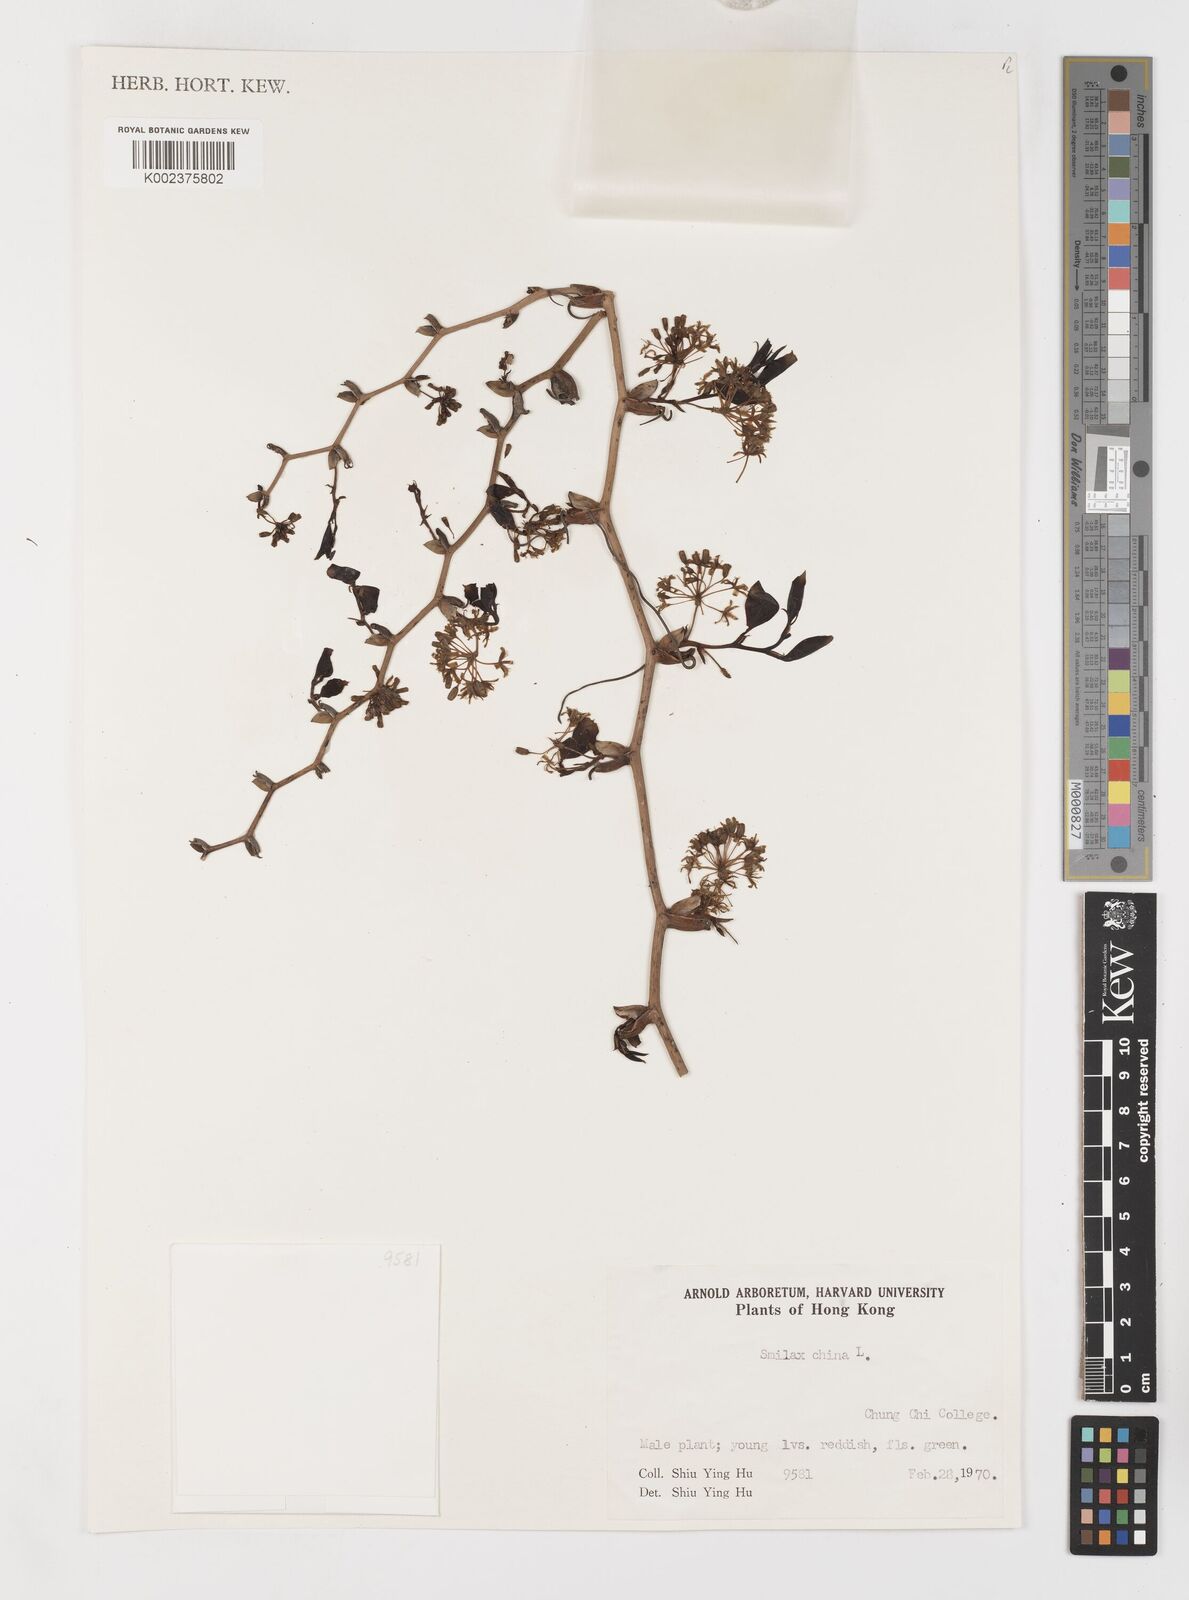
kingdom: Plantae
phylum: Tracheophyta
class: Liliopsida
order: Liliales
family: Smilacaceae
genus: Smilax
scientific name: Smilax china
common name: Chinaroot
